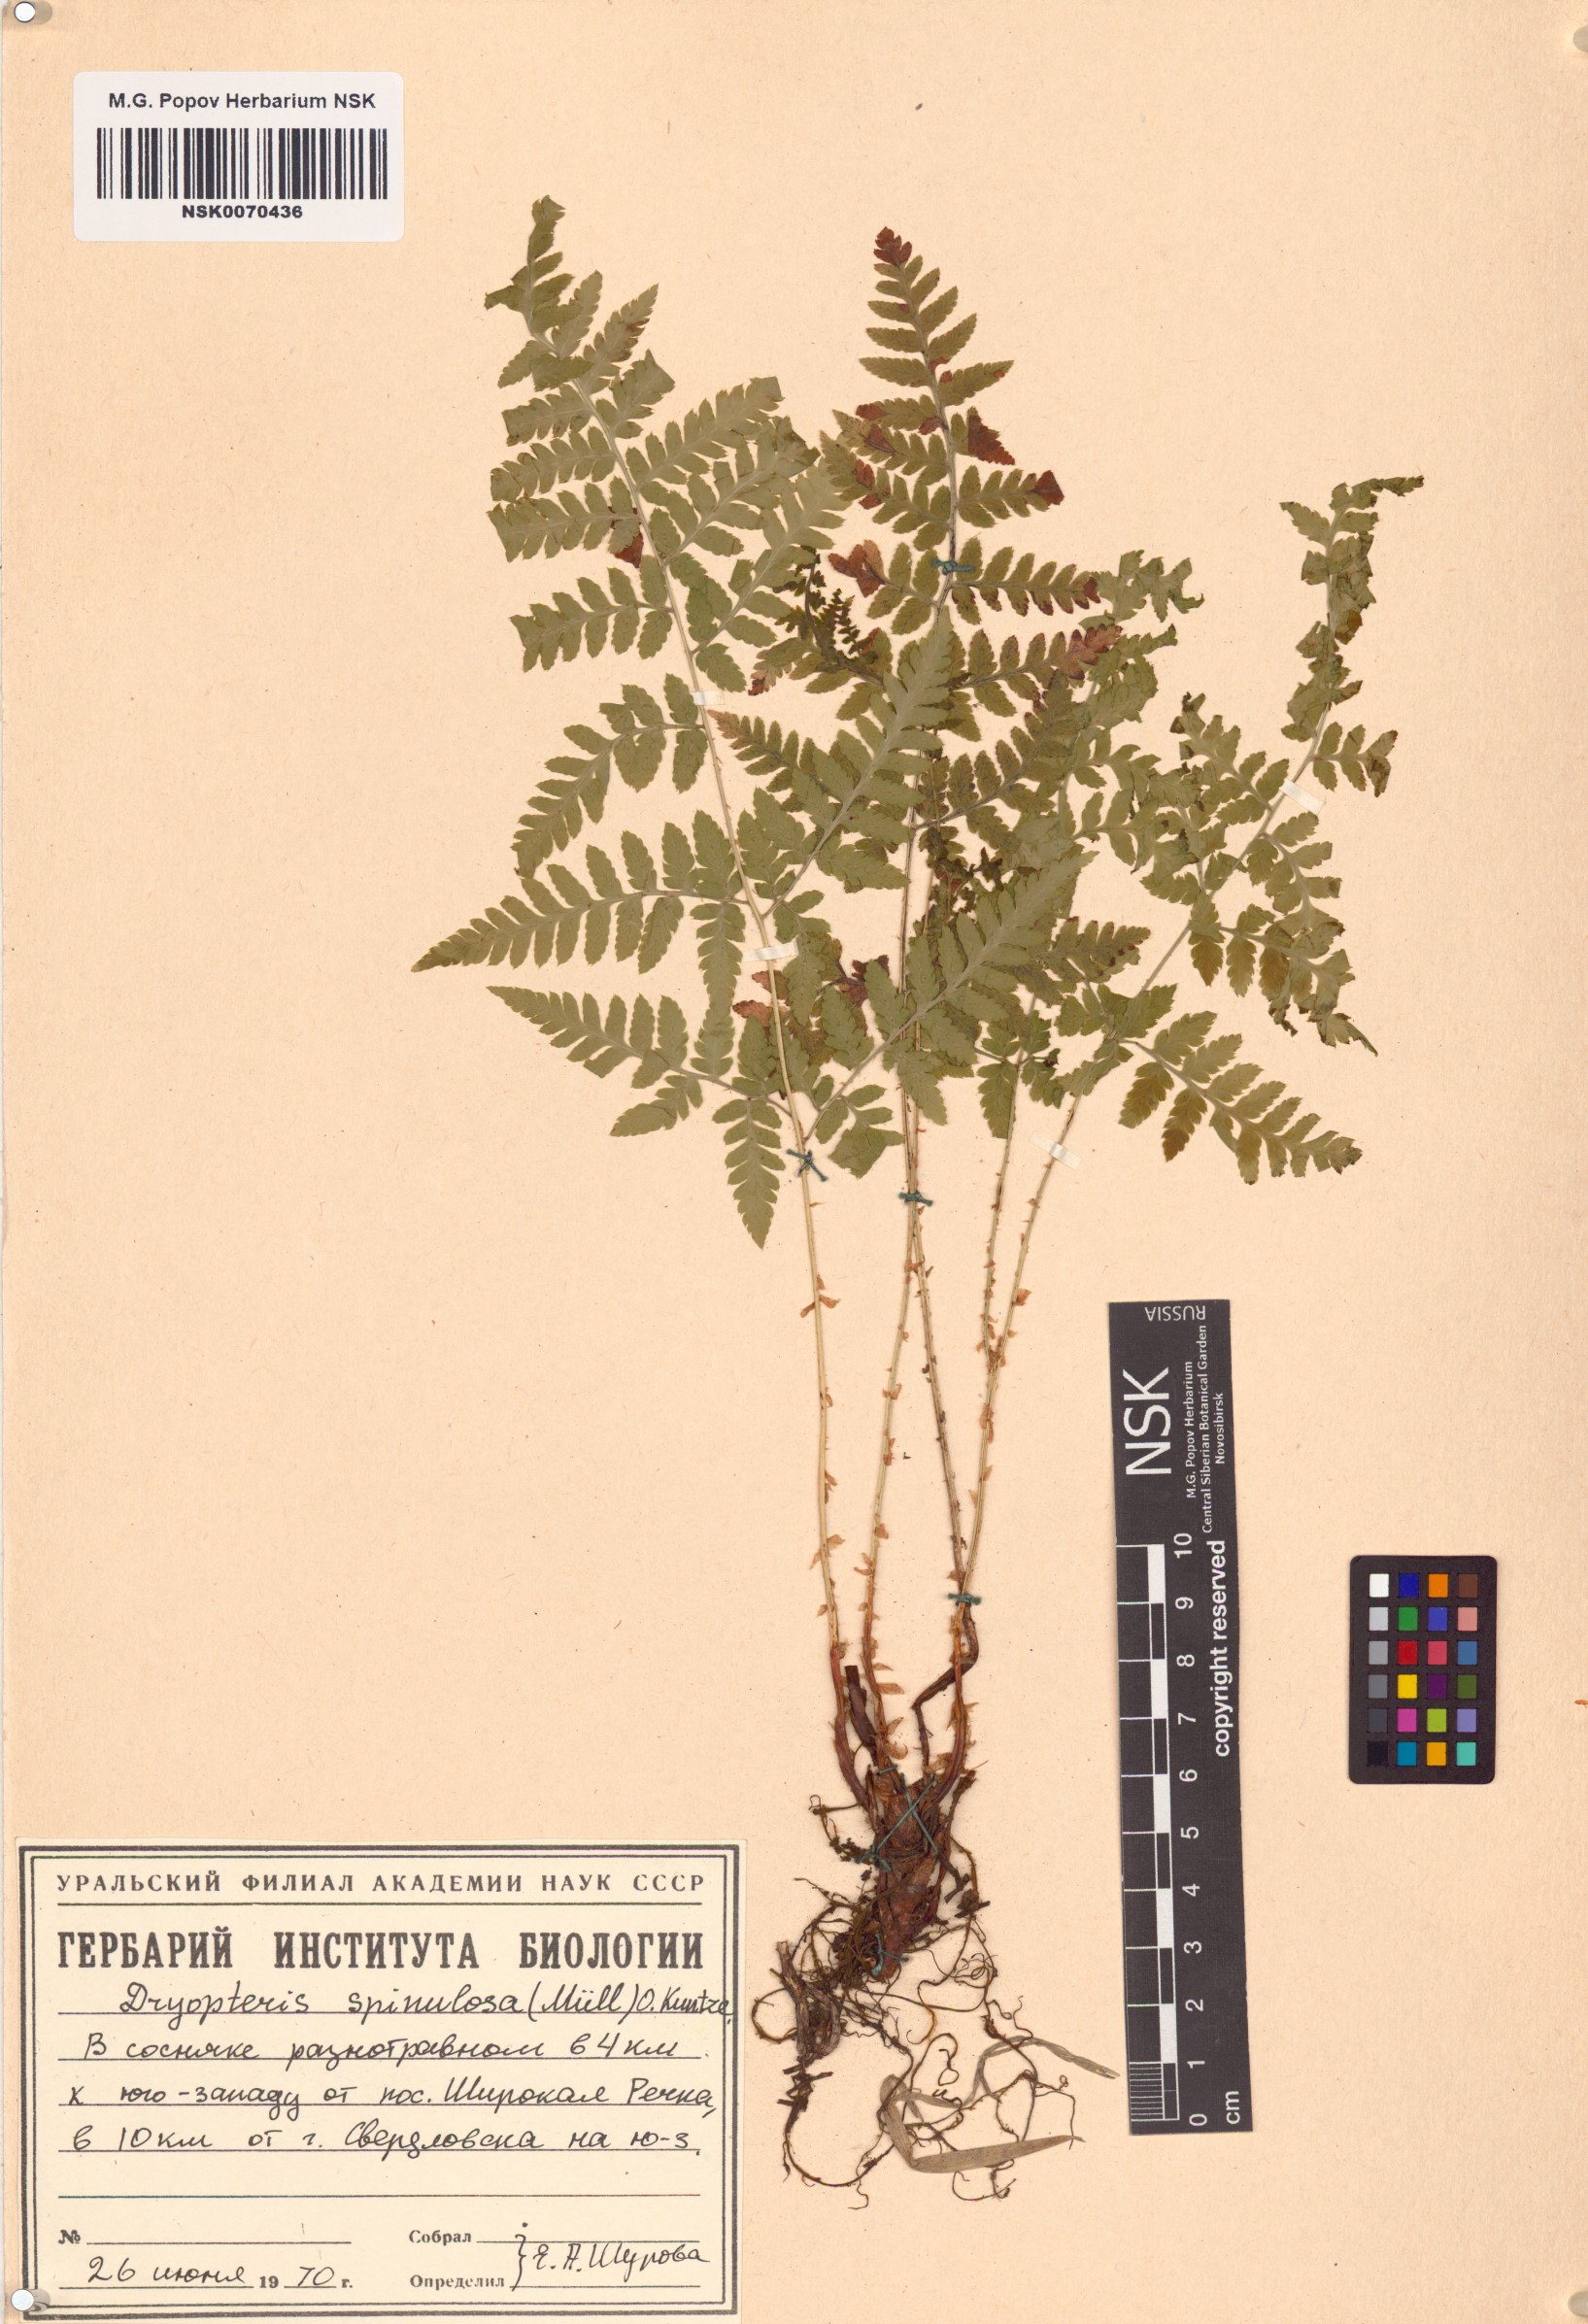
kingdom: Plantae
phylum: Tracheophyta
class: Polypodiopsida
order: Polypodiales
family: Dryopteridaceae
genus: Dryopteris
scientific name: Dryopteris carthusiana
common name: Narrow buckler-fern
